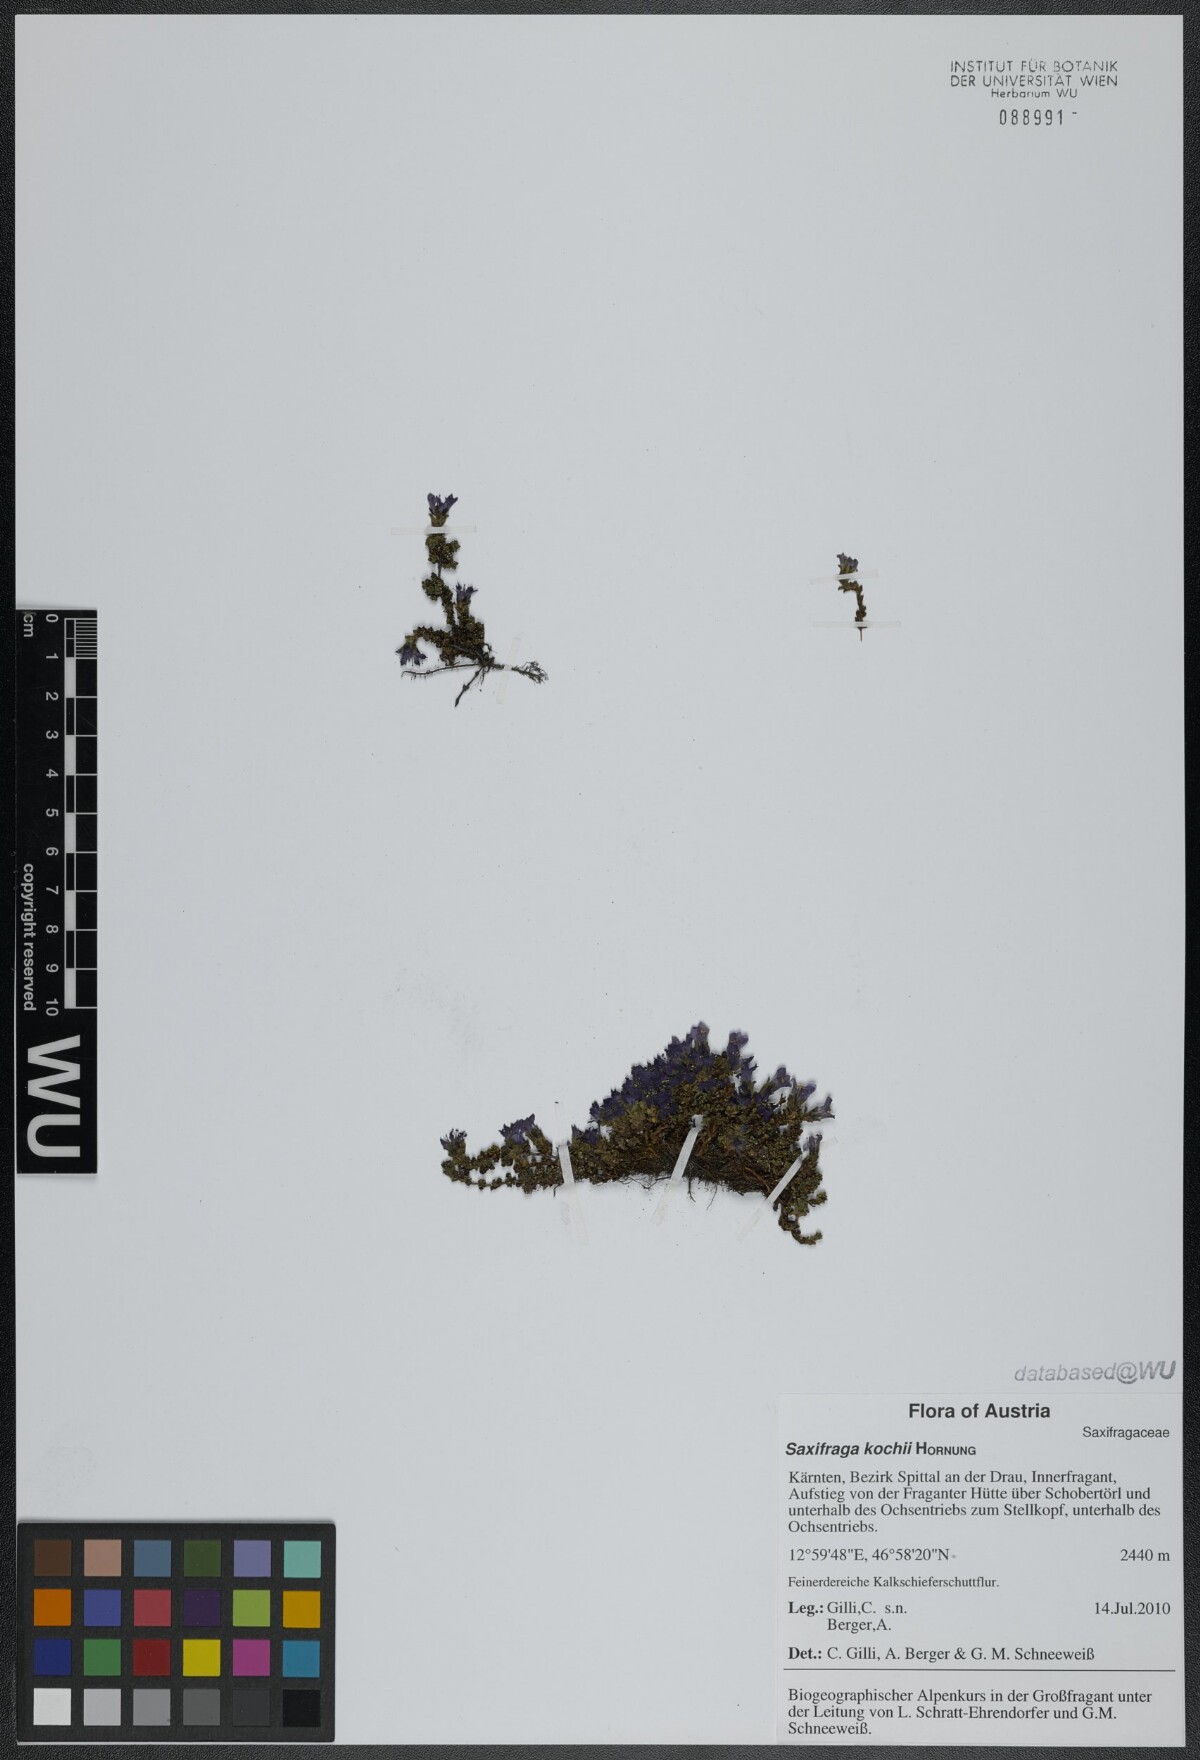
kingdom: Plantae
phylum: Tracheophyta
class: Magnoliopsida
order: Saxifragales
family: Saxifragaceae
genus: Saxifraga
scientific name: Saxifraga kochii
